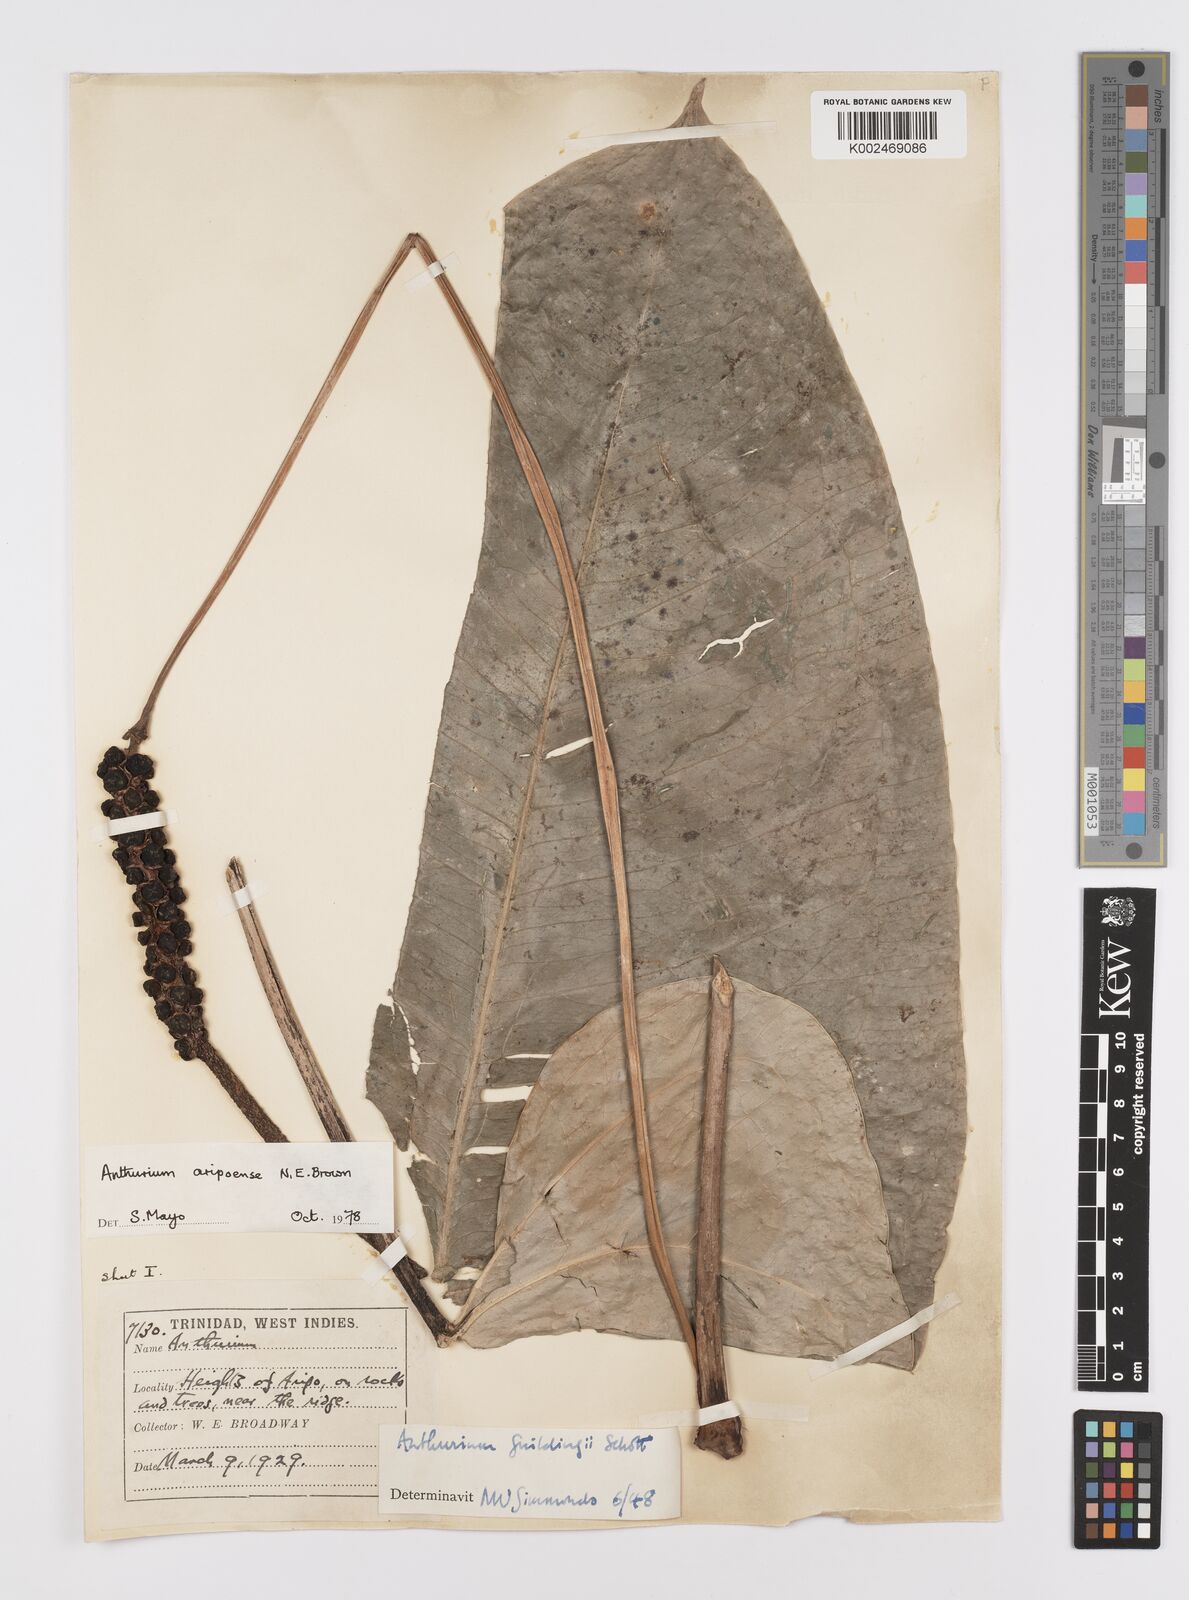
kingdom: Plantae
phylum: Tracheophyta
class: Liliopsida
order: Alismatales
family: Araceae
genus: Anthurium
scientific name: Anthurium aripoense
